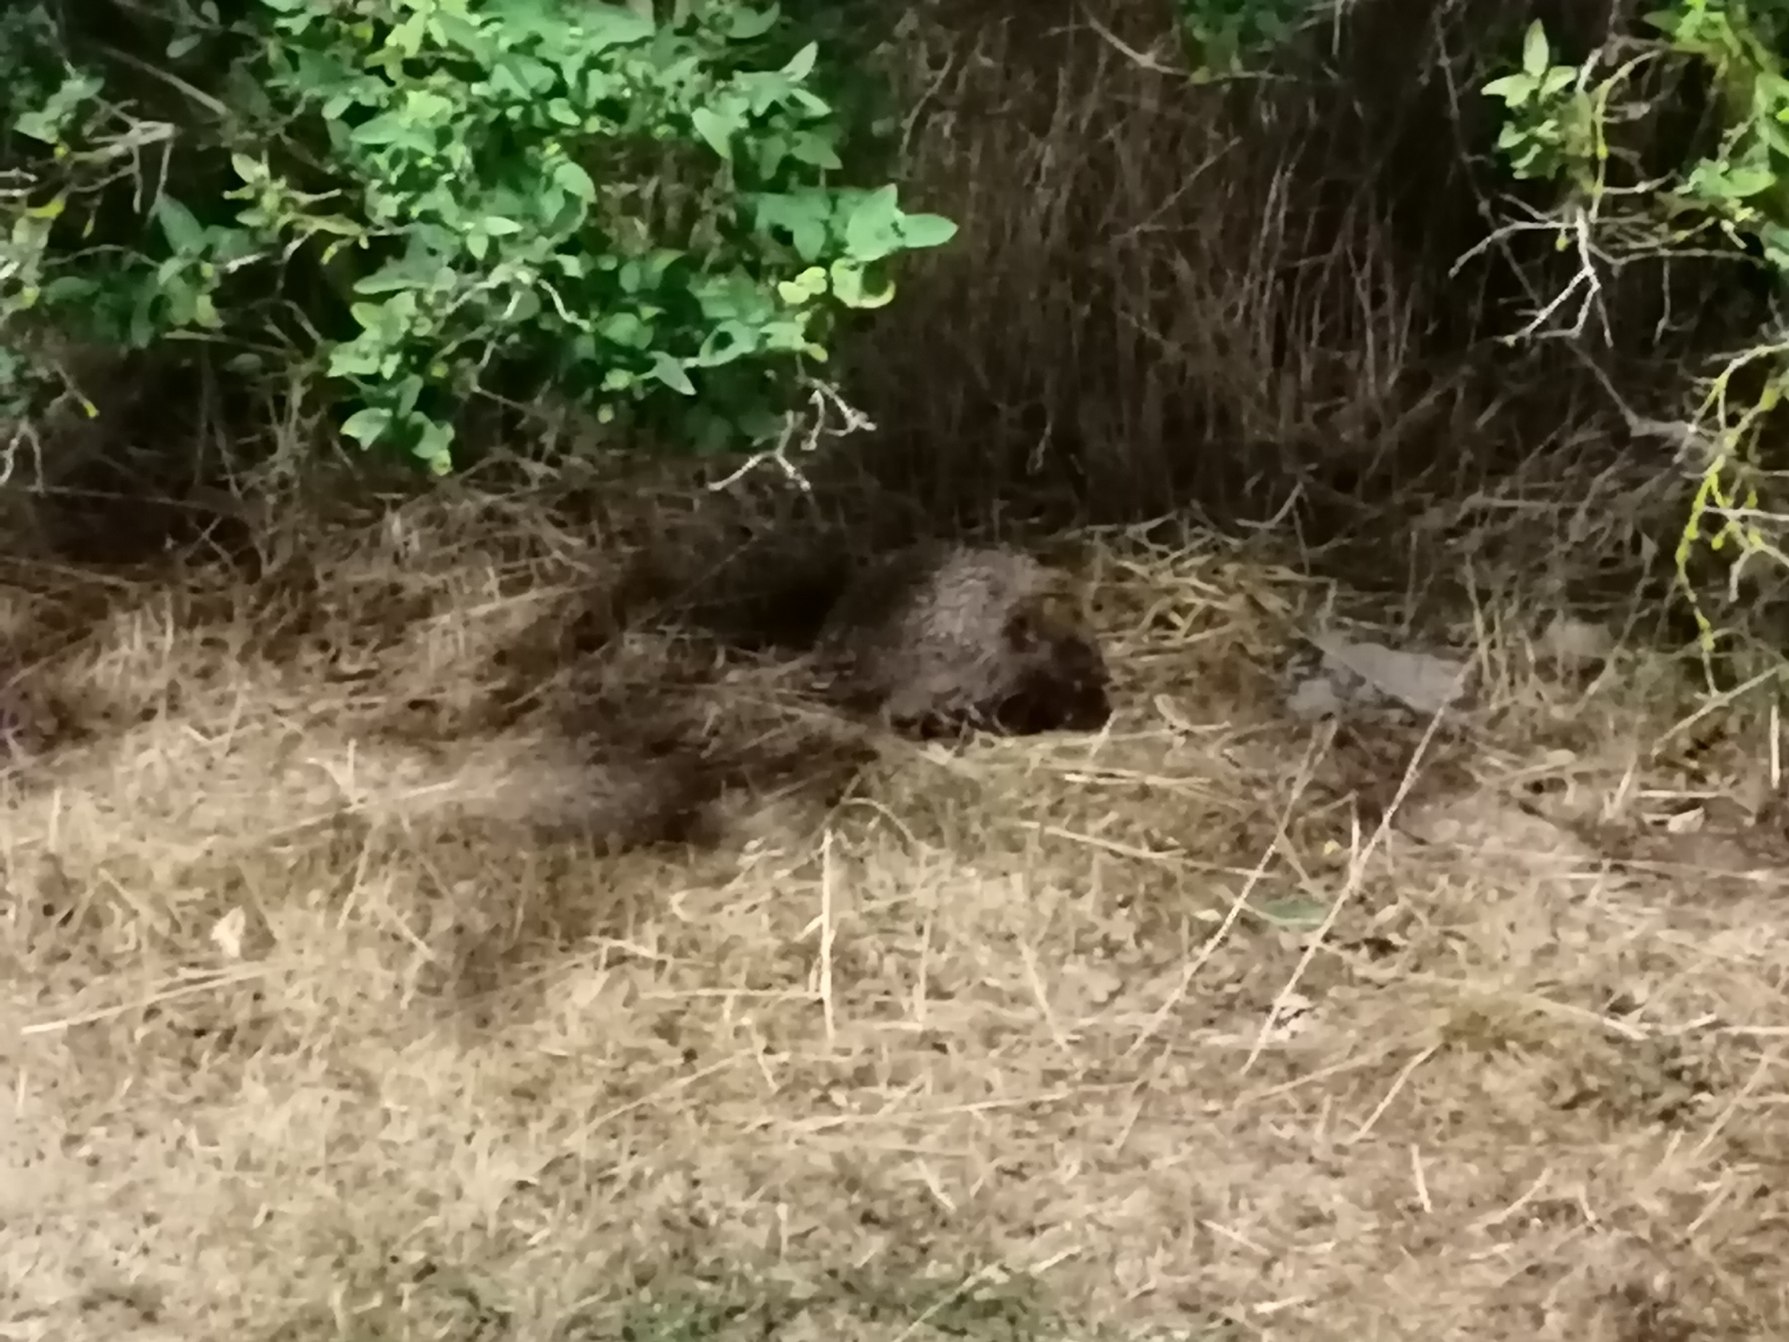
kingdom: Animalia
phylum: Chordata
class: Mammalia
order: Erinaceomorpha
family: Erinaceidae
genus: Erinaceus
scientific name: Erinaceus europaeus
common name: Pindsvin
